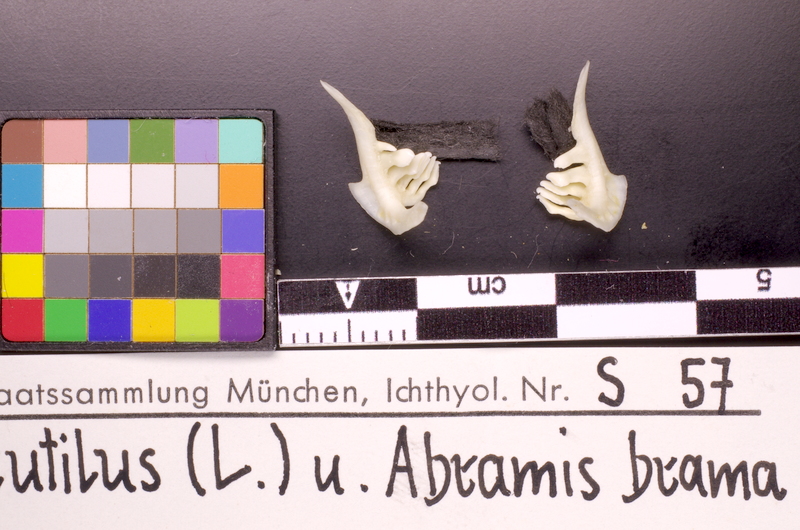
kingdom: Animalia
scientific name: Animalia
